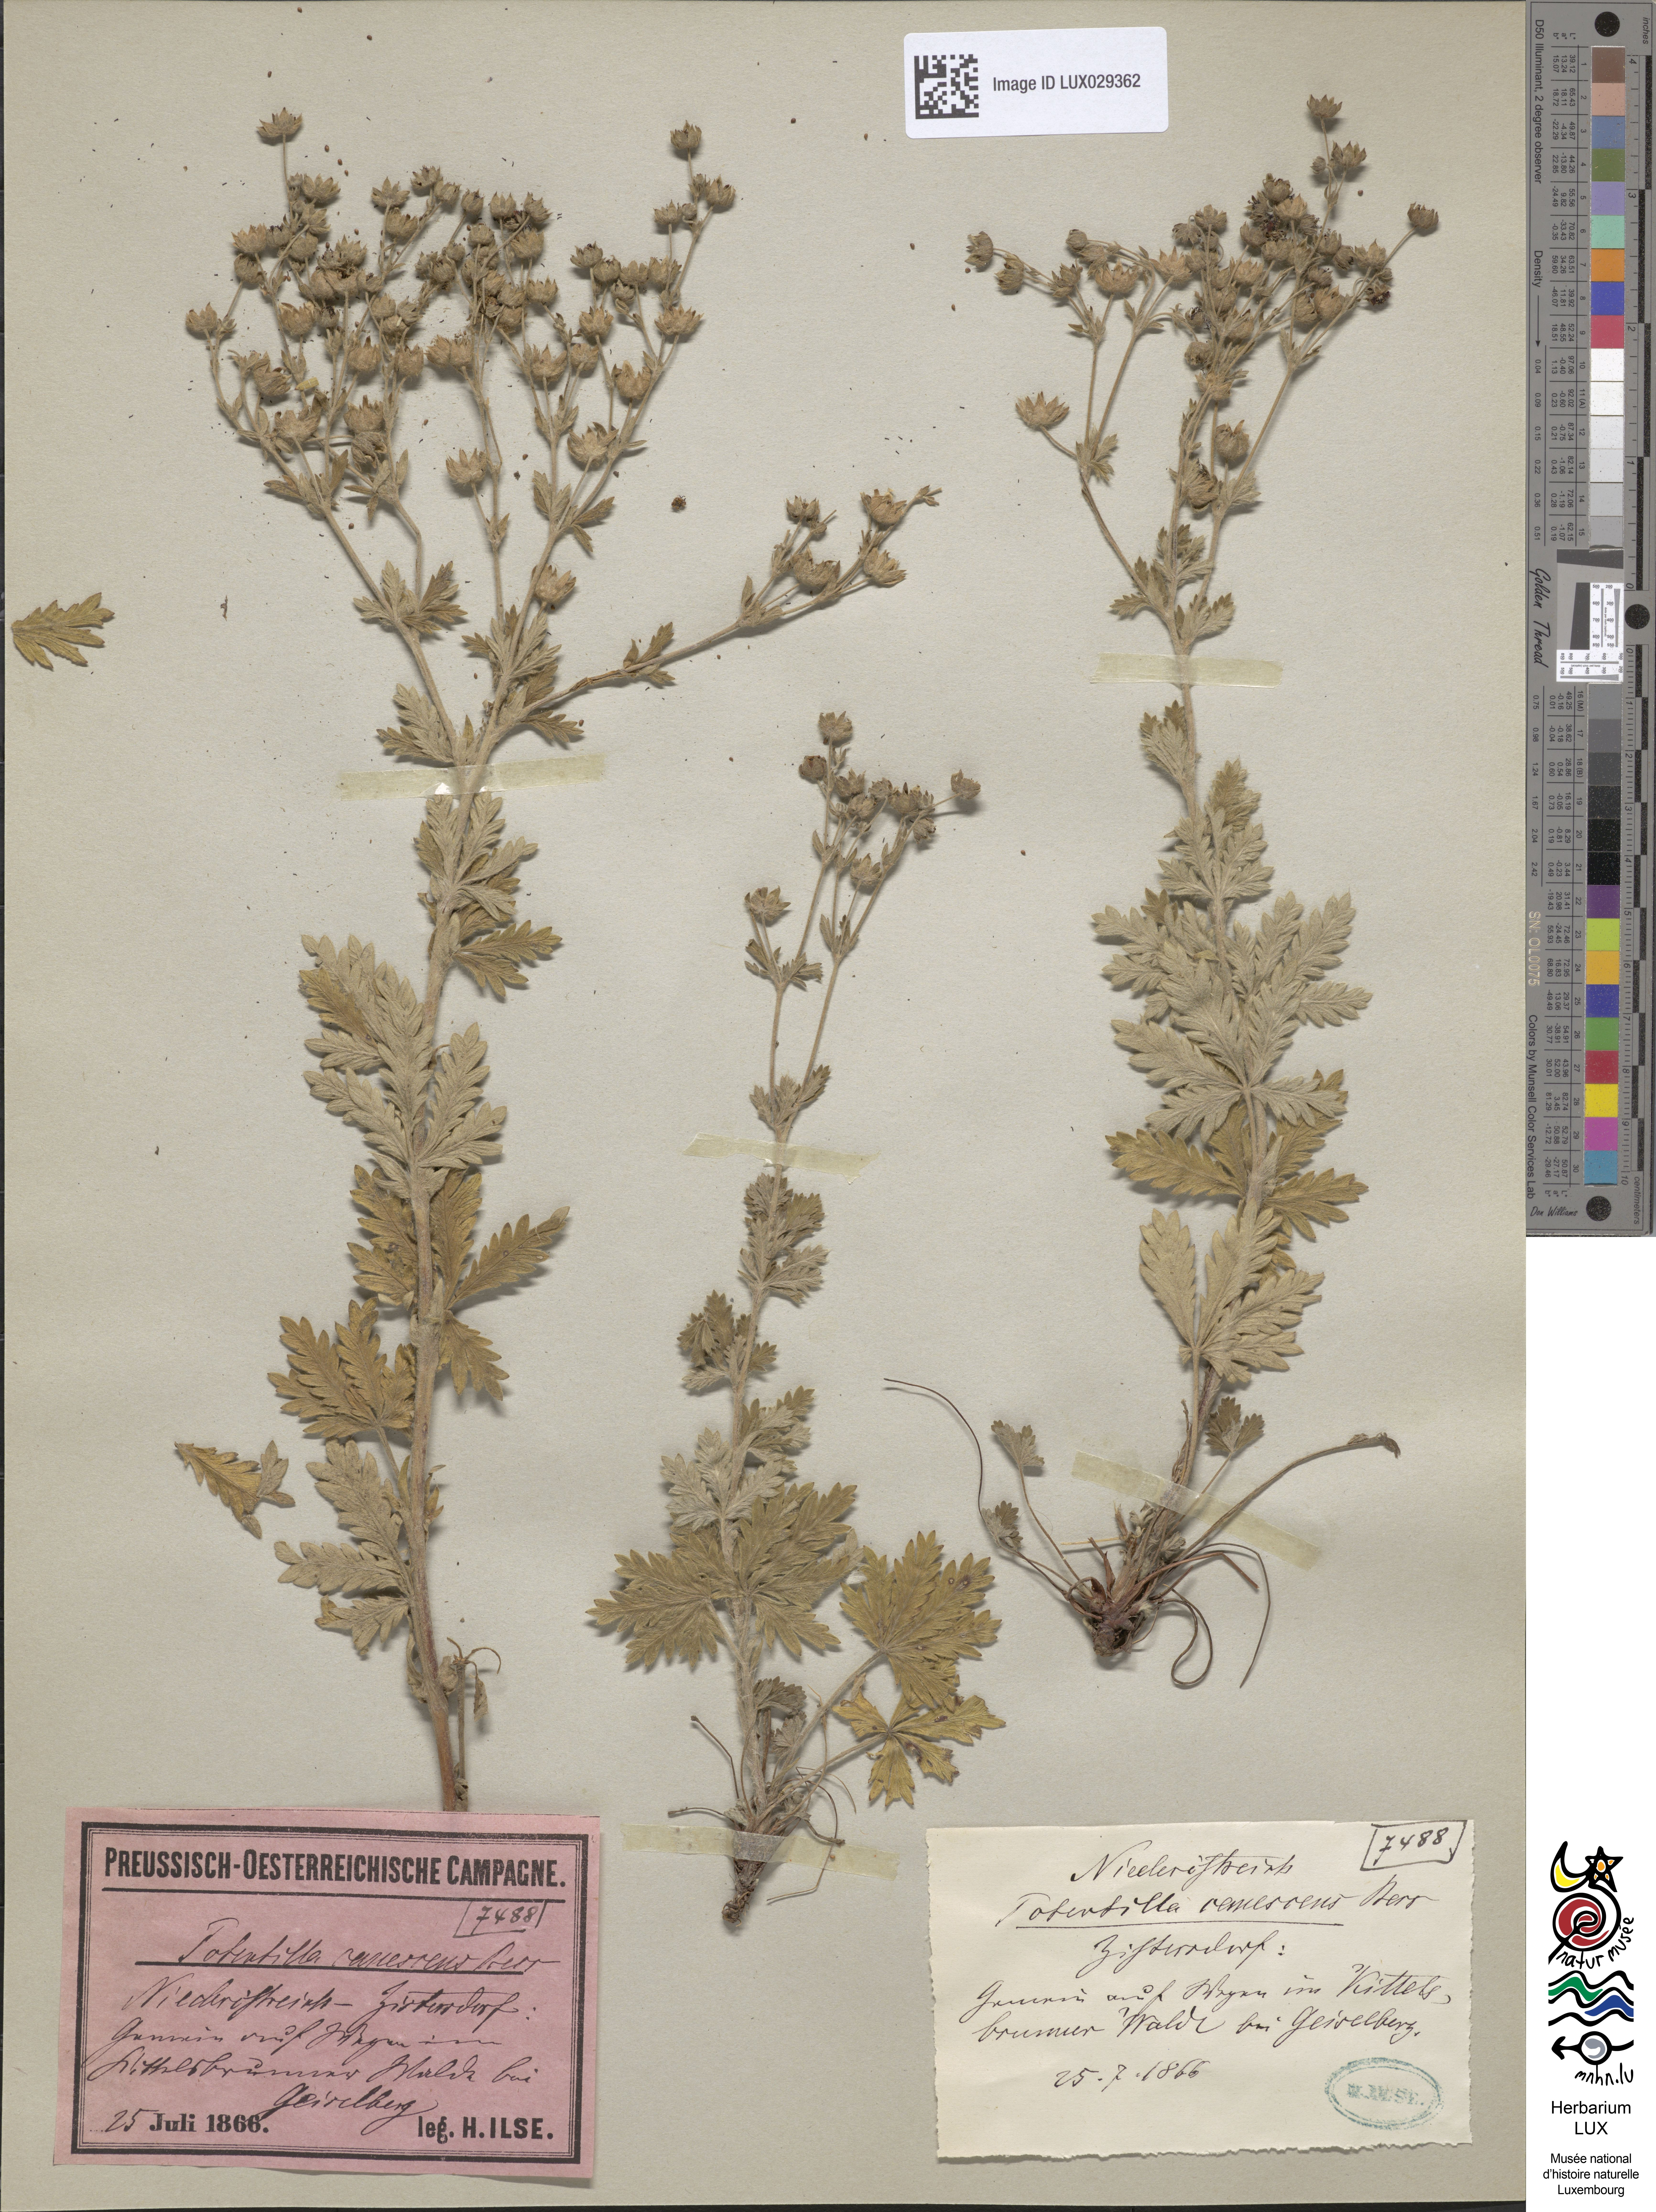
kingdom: Plantae
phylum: Tracheophyta
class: Magnoliopsida
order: Rosales
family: Rosaceae
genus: Potentilla
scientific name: Potentilla inclinata
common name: Grey cinquefoil
